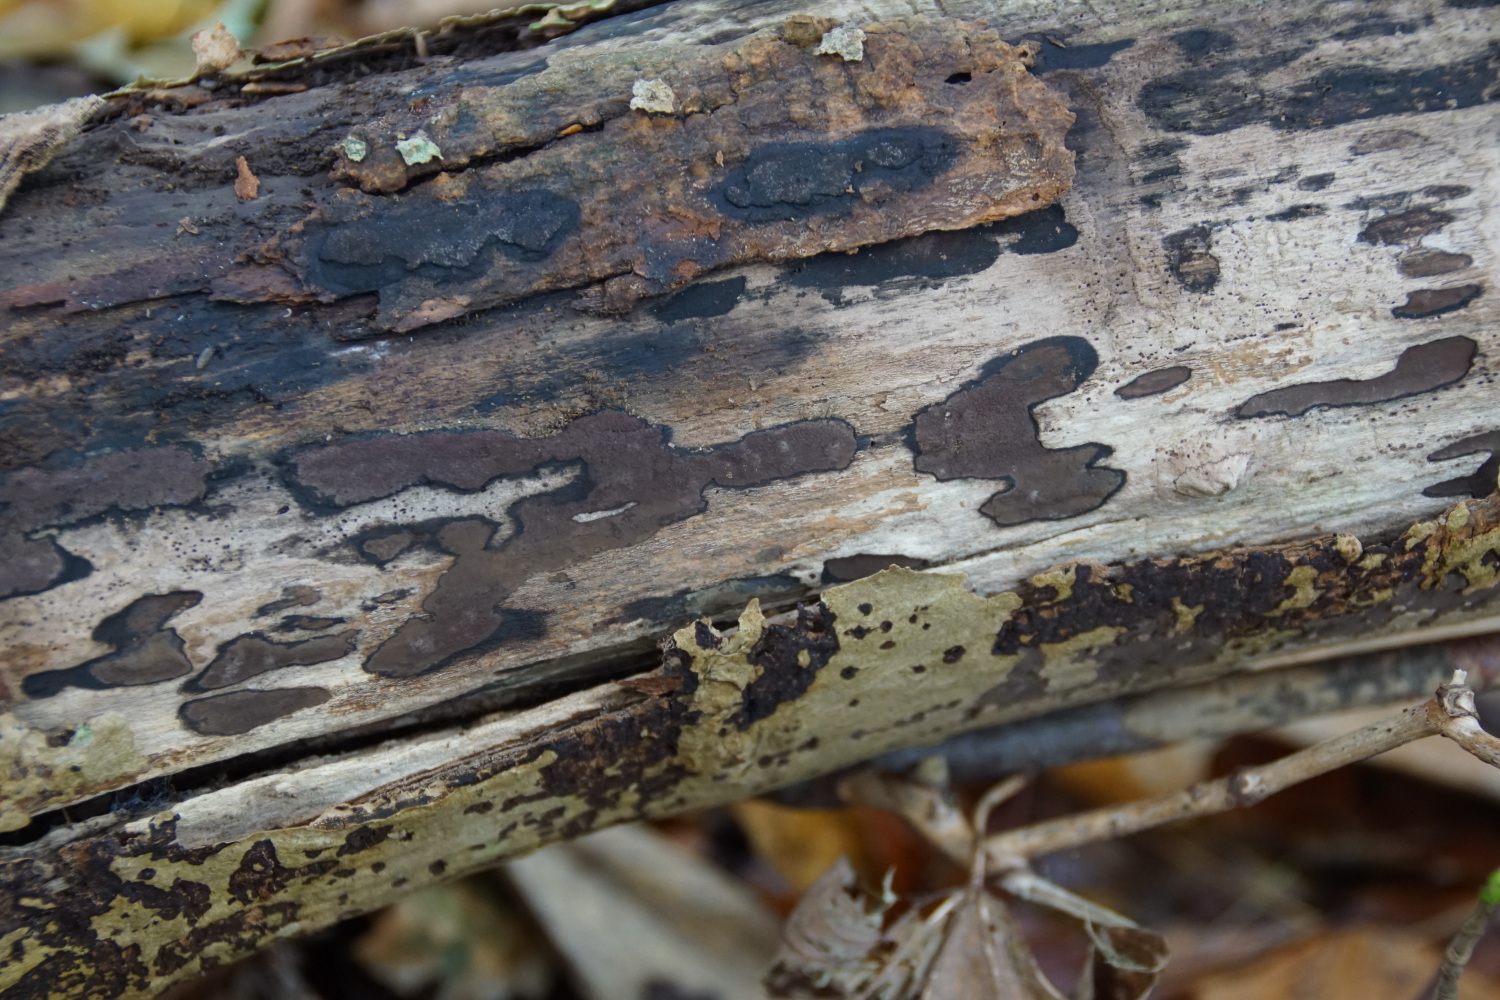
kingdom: Fungi
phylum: Ascomycota
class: Sordariomycetes
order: Xylariales
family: Hypoxylaceae
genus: Hypoxylon
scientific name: Hypoxylon petriniae
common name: nedsænket kulbær
